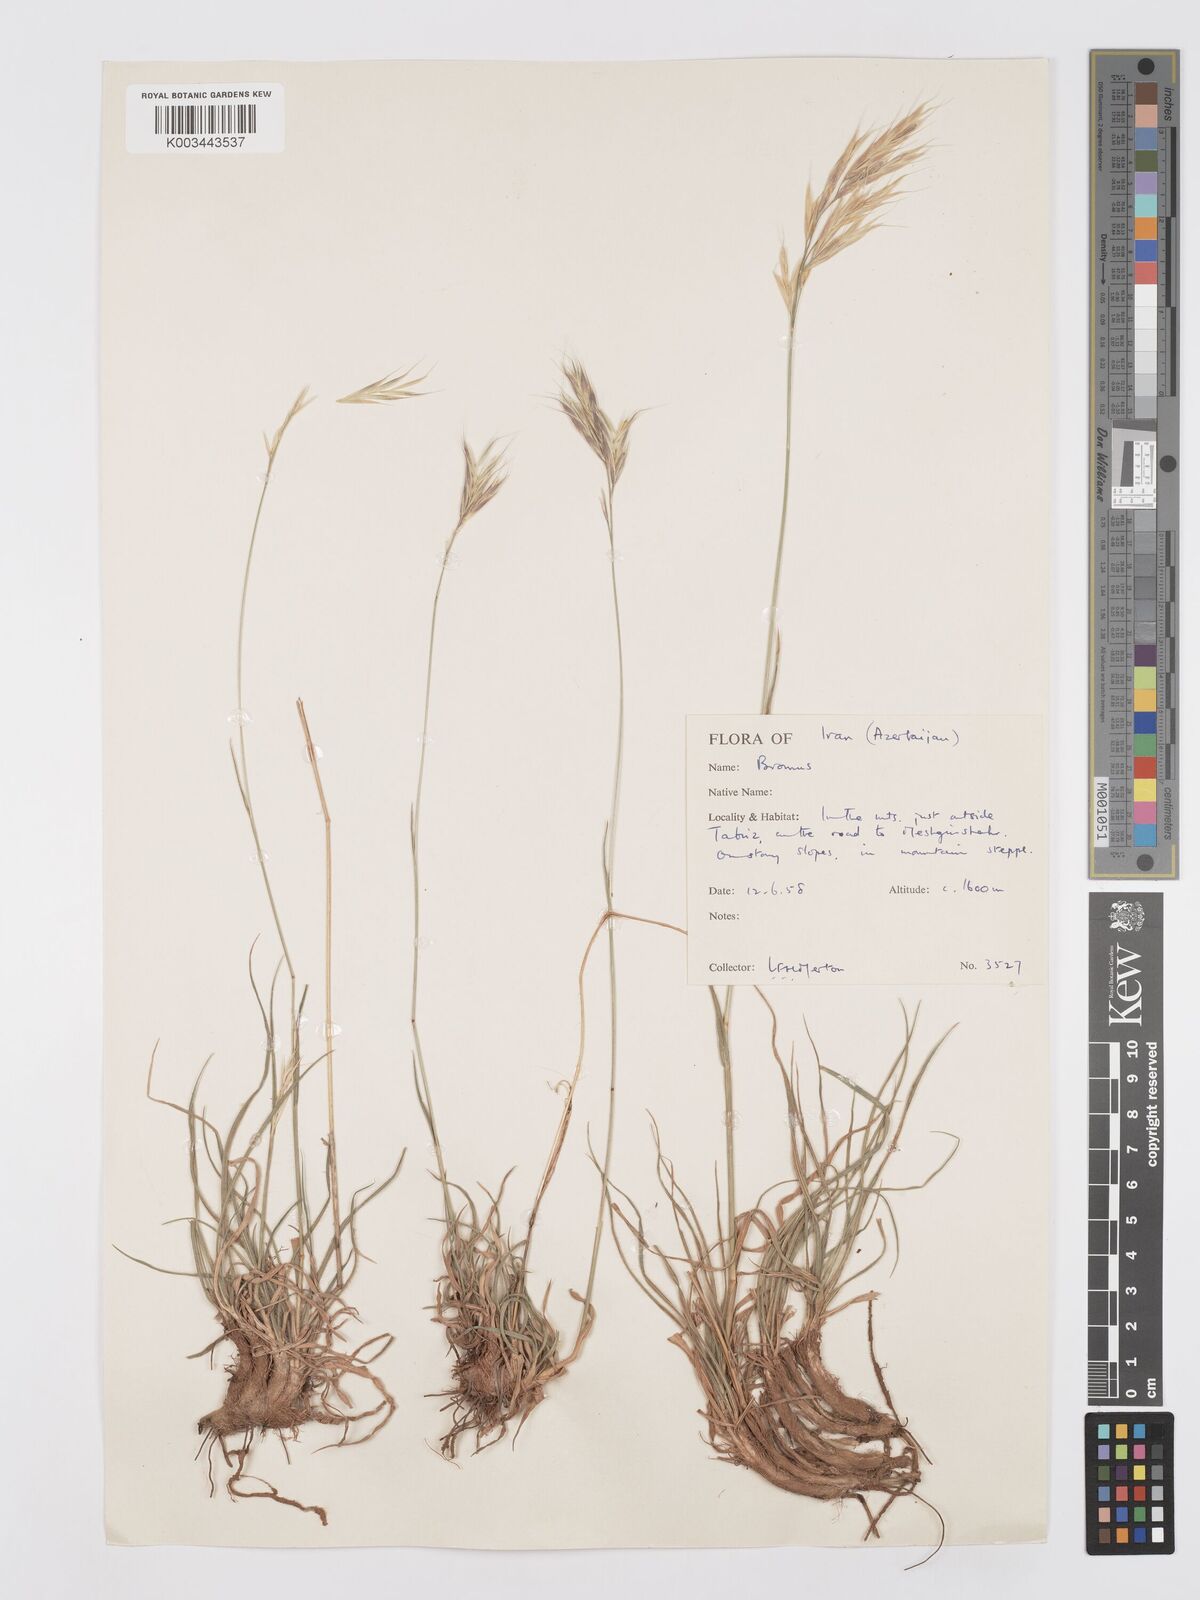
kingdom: Plantae
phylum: Tracheophyta
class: Liliopsida
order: Poales
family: Poaceae
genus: Bromus
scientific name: Bromus tomentellus
